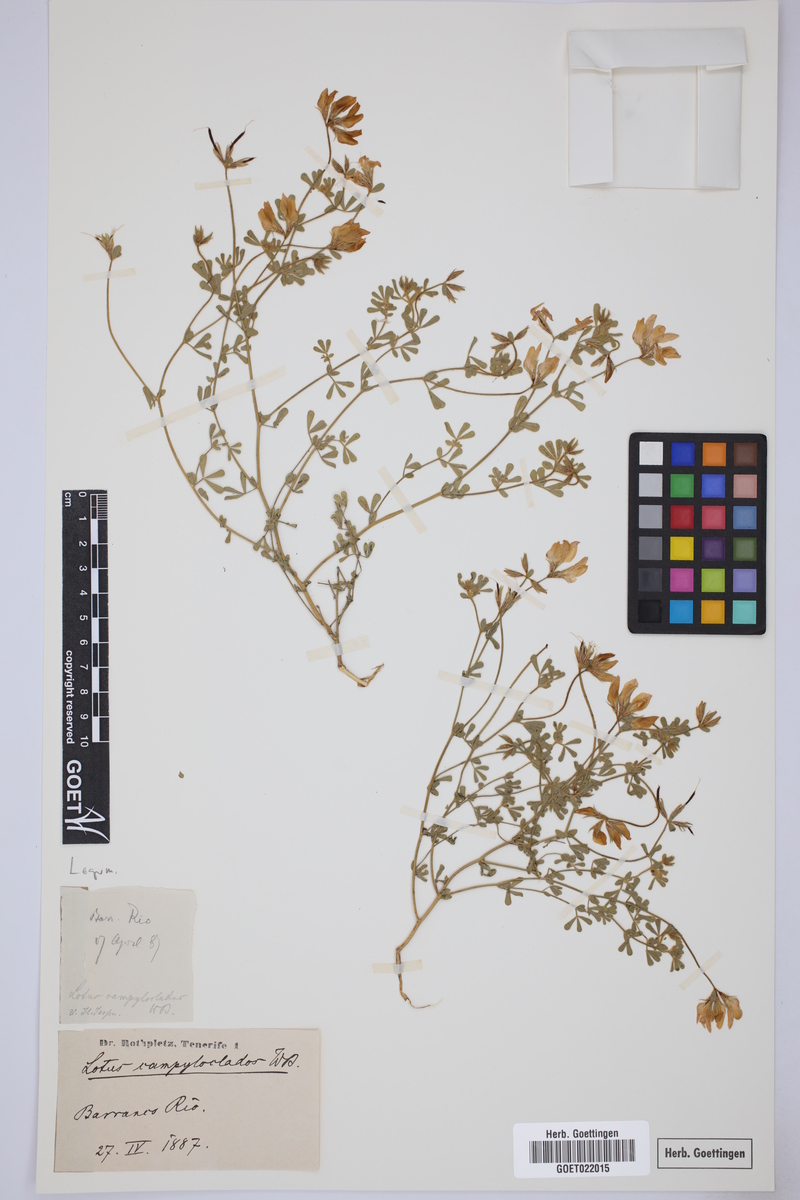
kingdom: Plantae
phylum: Tracheophyta
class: Magnoliopsida
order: Fabales
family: Fabaceae
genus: Lotus
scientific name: Lotus campylocladus
